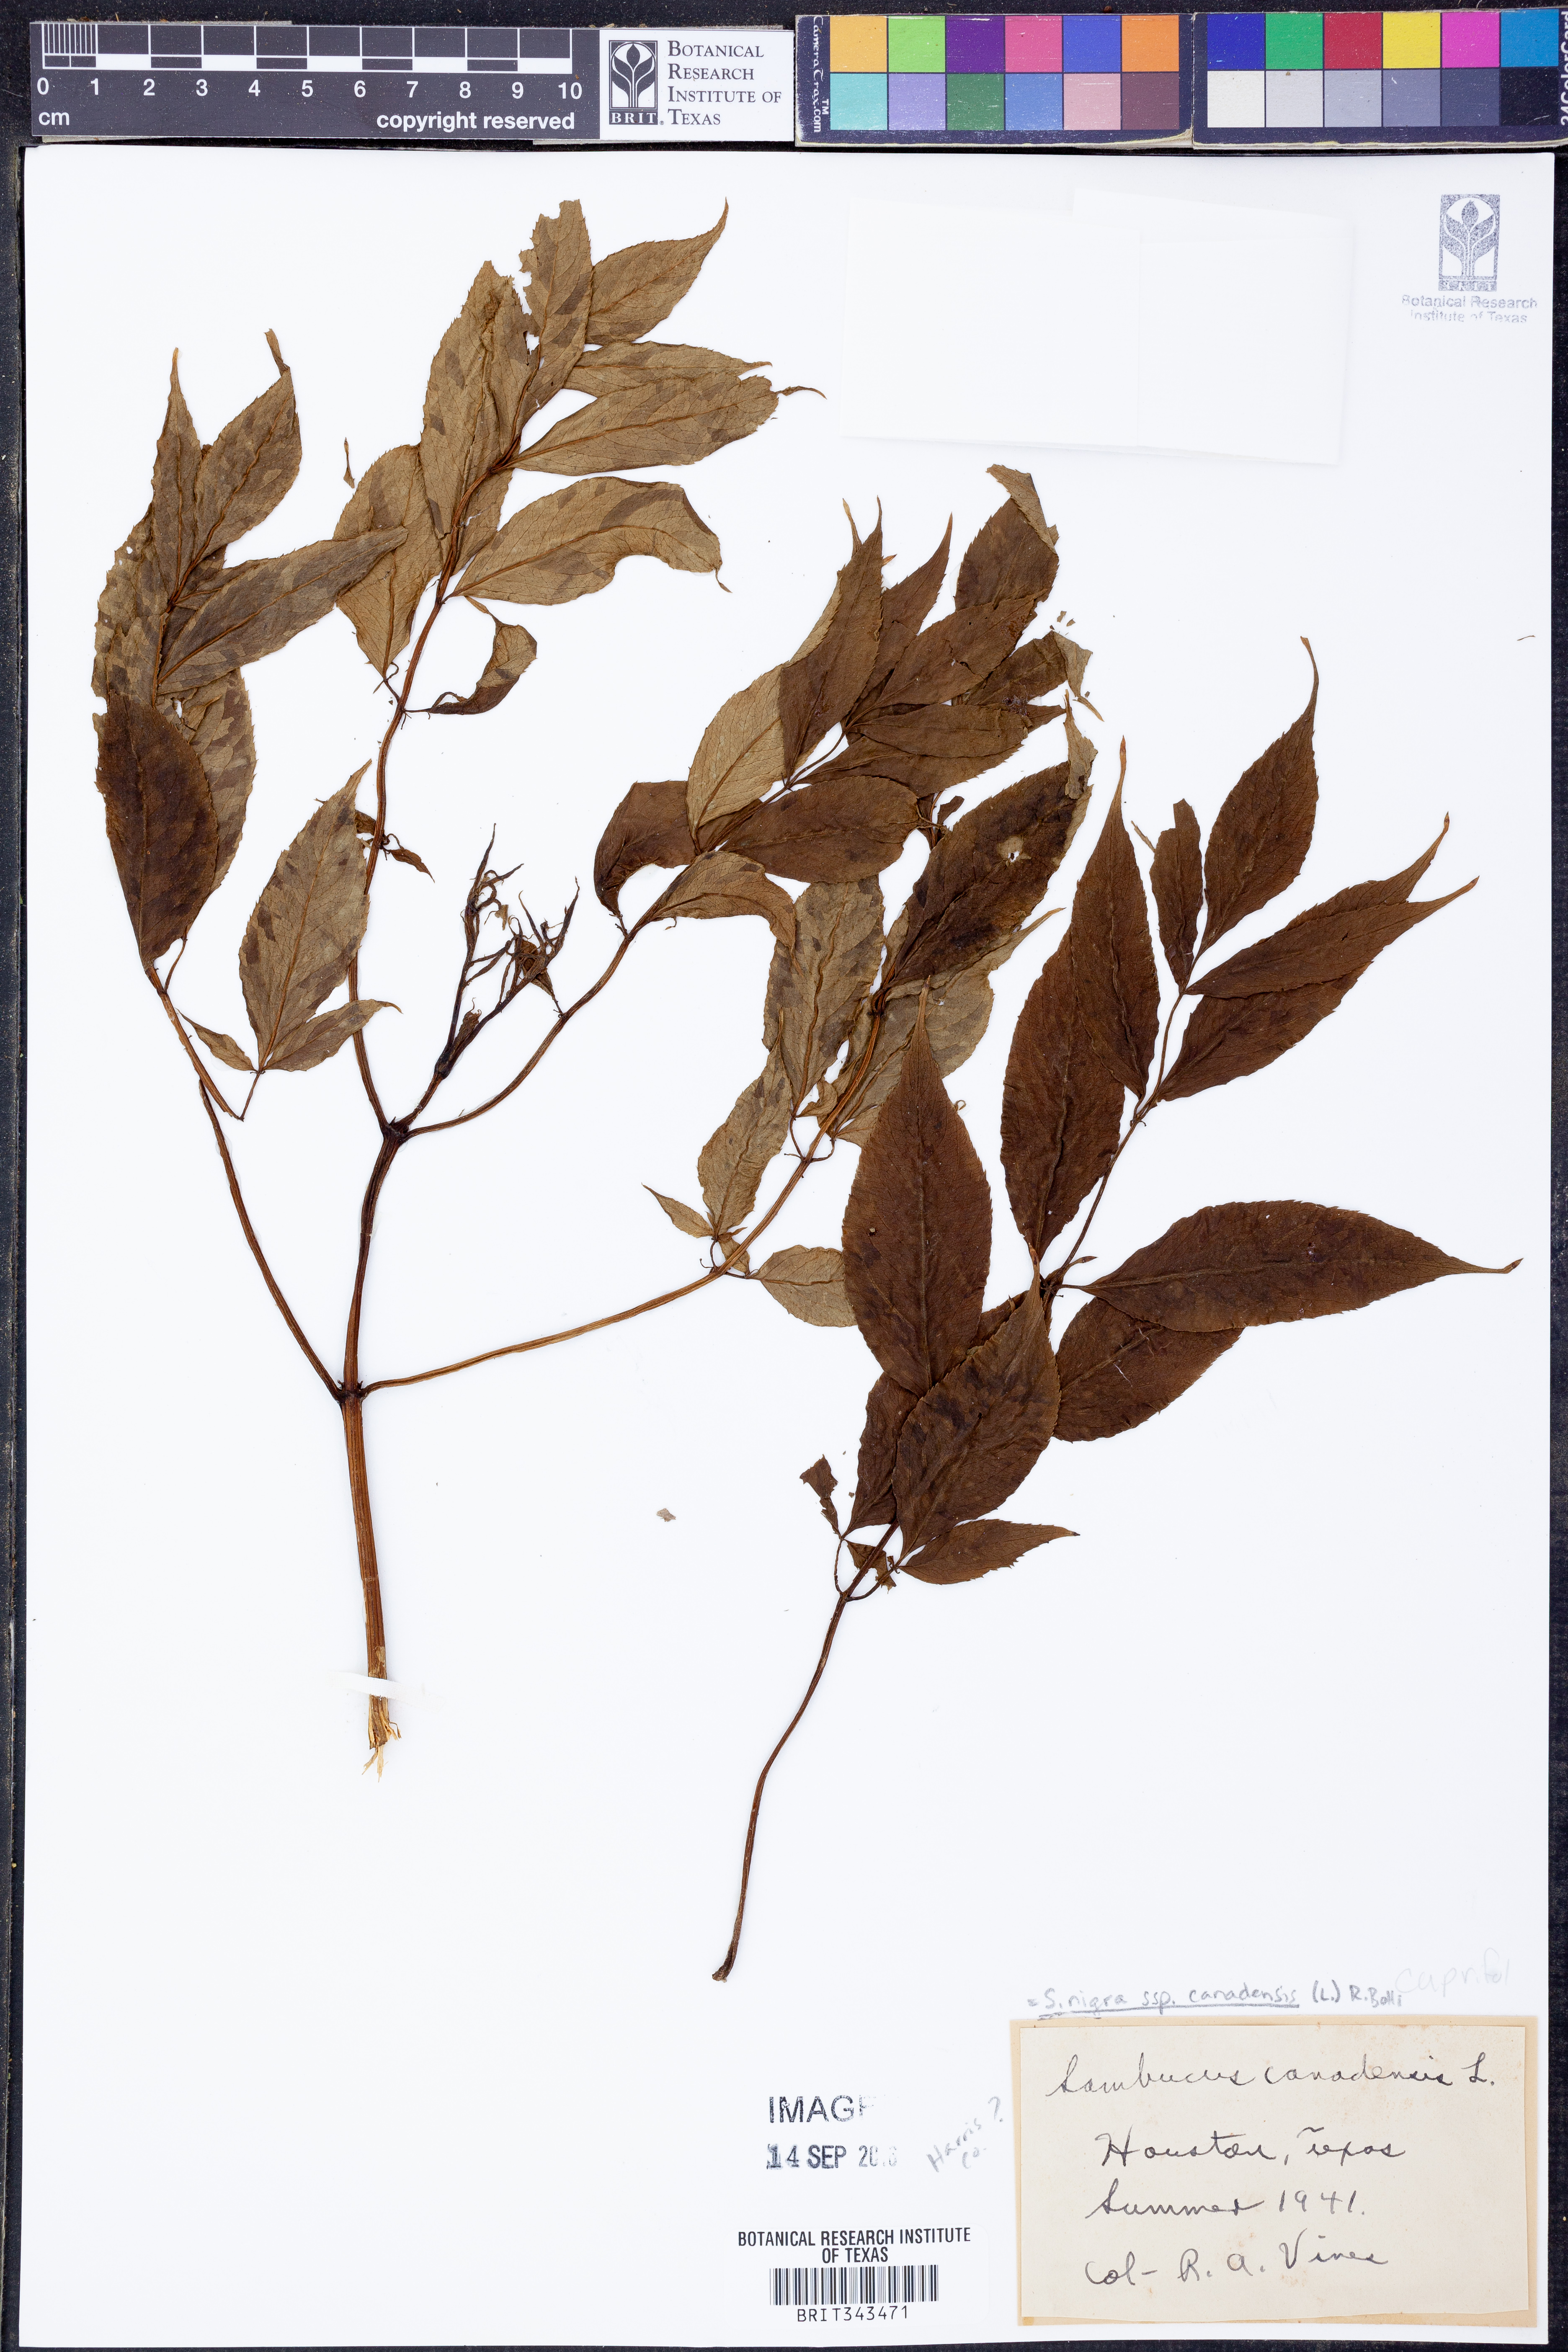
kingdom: Plantae
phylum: Tracheophyta
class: Magnoliopsida
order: Dipsacales
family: Viburnaceae
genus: Sambucus
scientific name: Sambucus canadensis
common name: American elder
